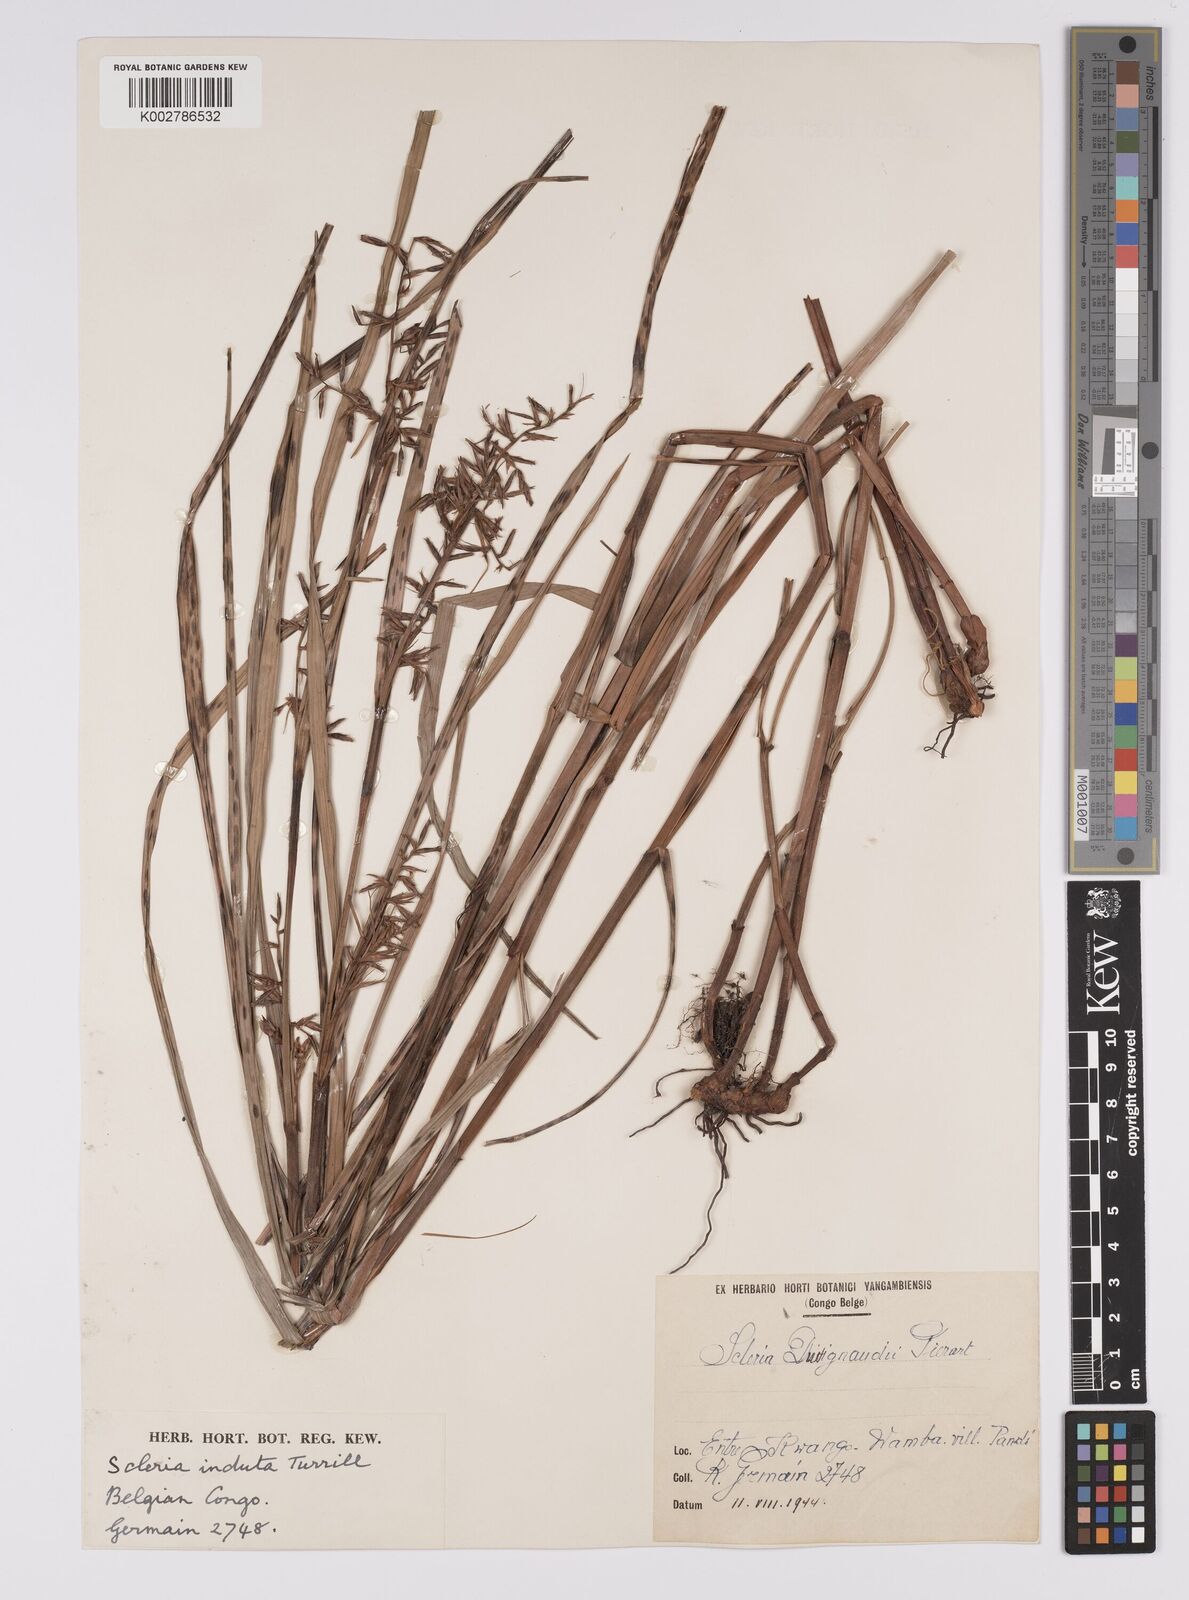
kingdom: Plantae
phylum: Tracheophyta
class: Liliopsida
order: Poales
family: Cyperaceae
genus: Scleria
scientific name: Scleria induta
